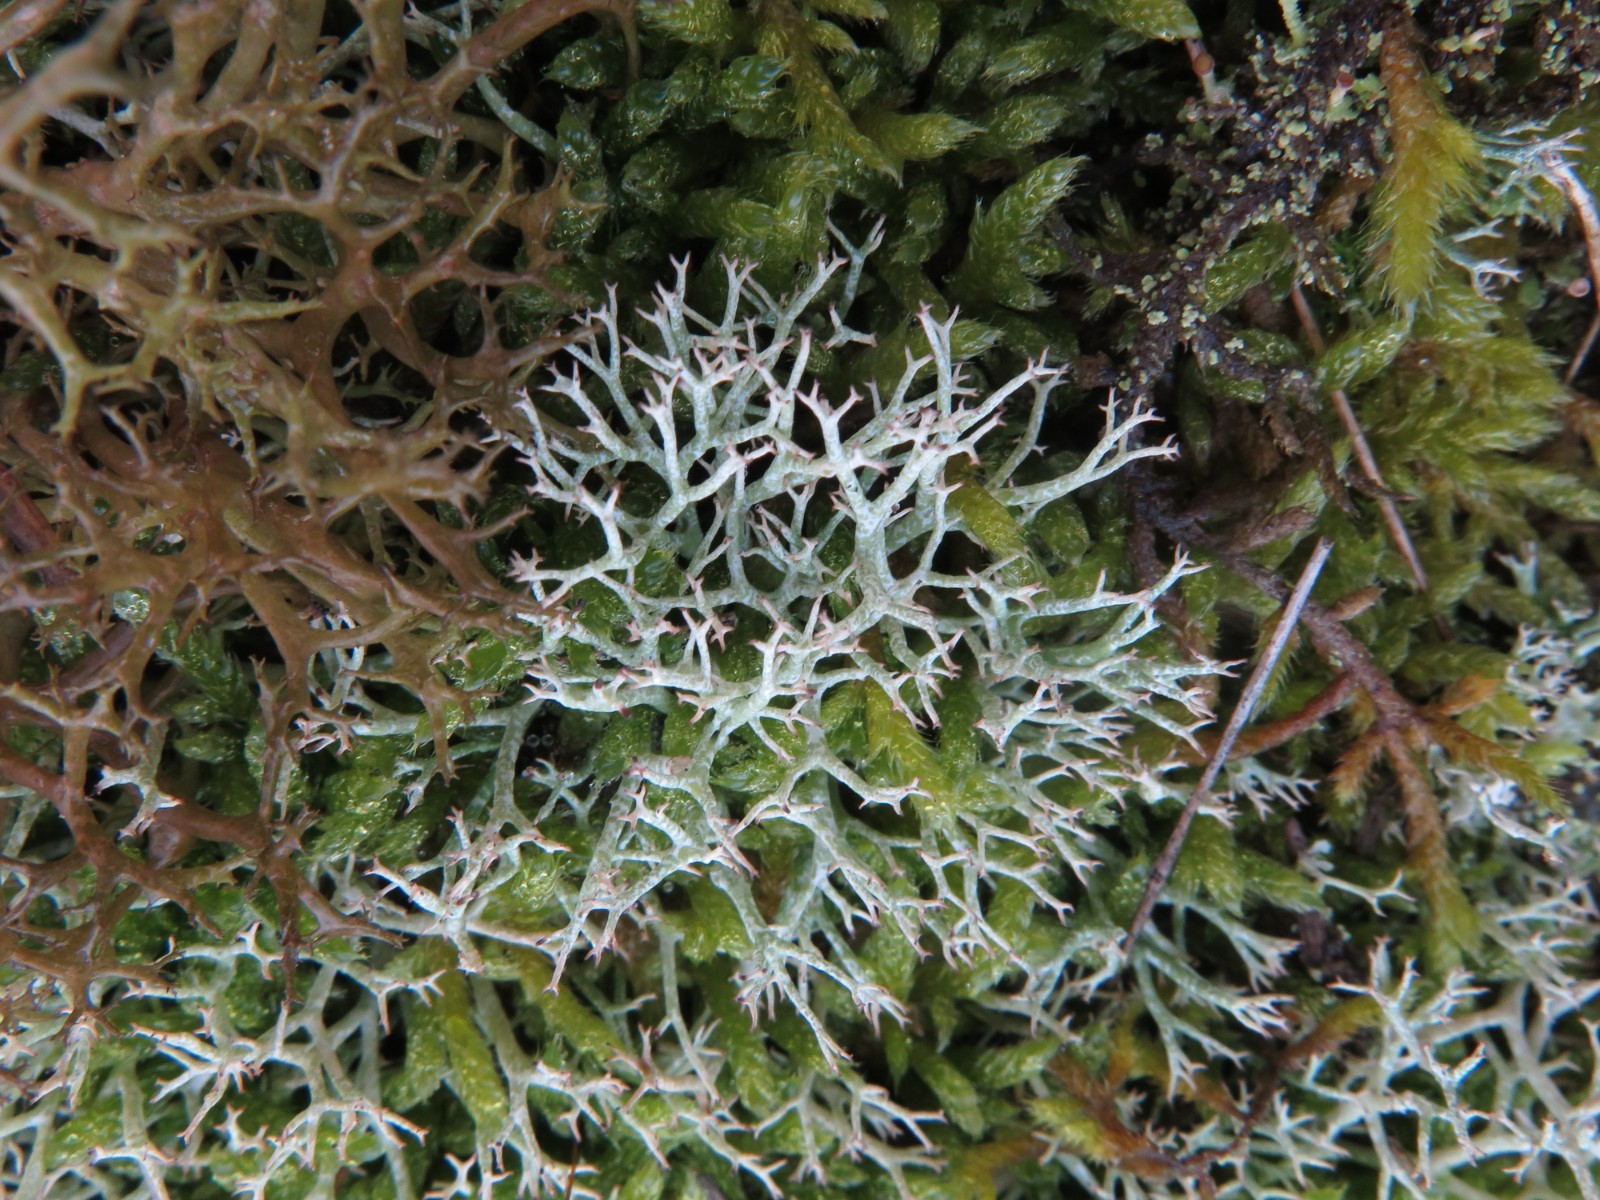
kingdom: Fungi
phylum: Ascomycota
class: Lecanoromycetes
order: Lecanorales
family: Cladoniaceae
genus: Cladonia
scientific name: Cladonia portentosa
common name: hede-rensdyrlav
